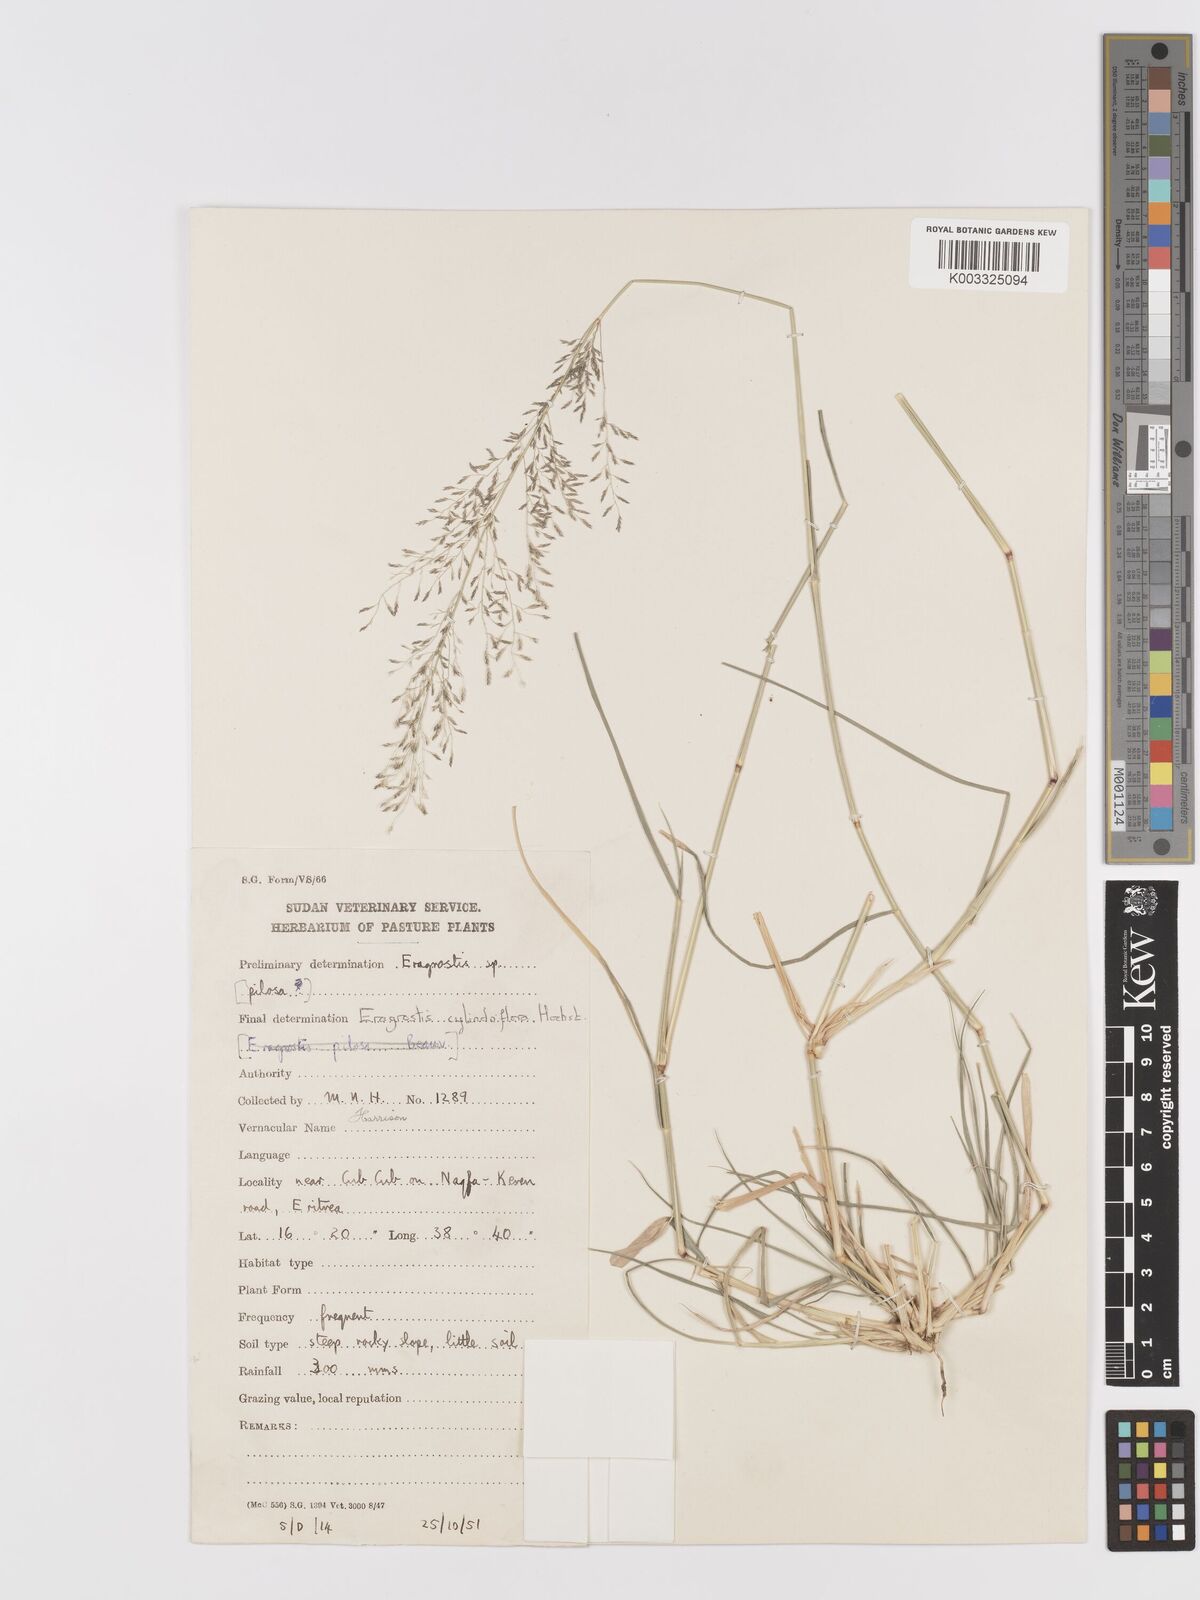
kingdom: Plantae
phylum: Tracheophyta
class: Liliopsida
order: Poales
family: Poaceae
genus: Eragrostis
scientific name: Eragrostis cylindriflora
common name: Cylinderflower lovegrass
